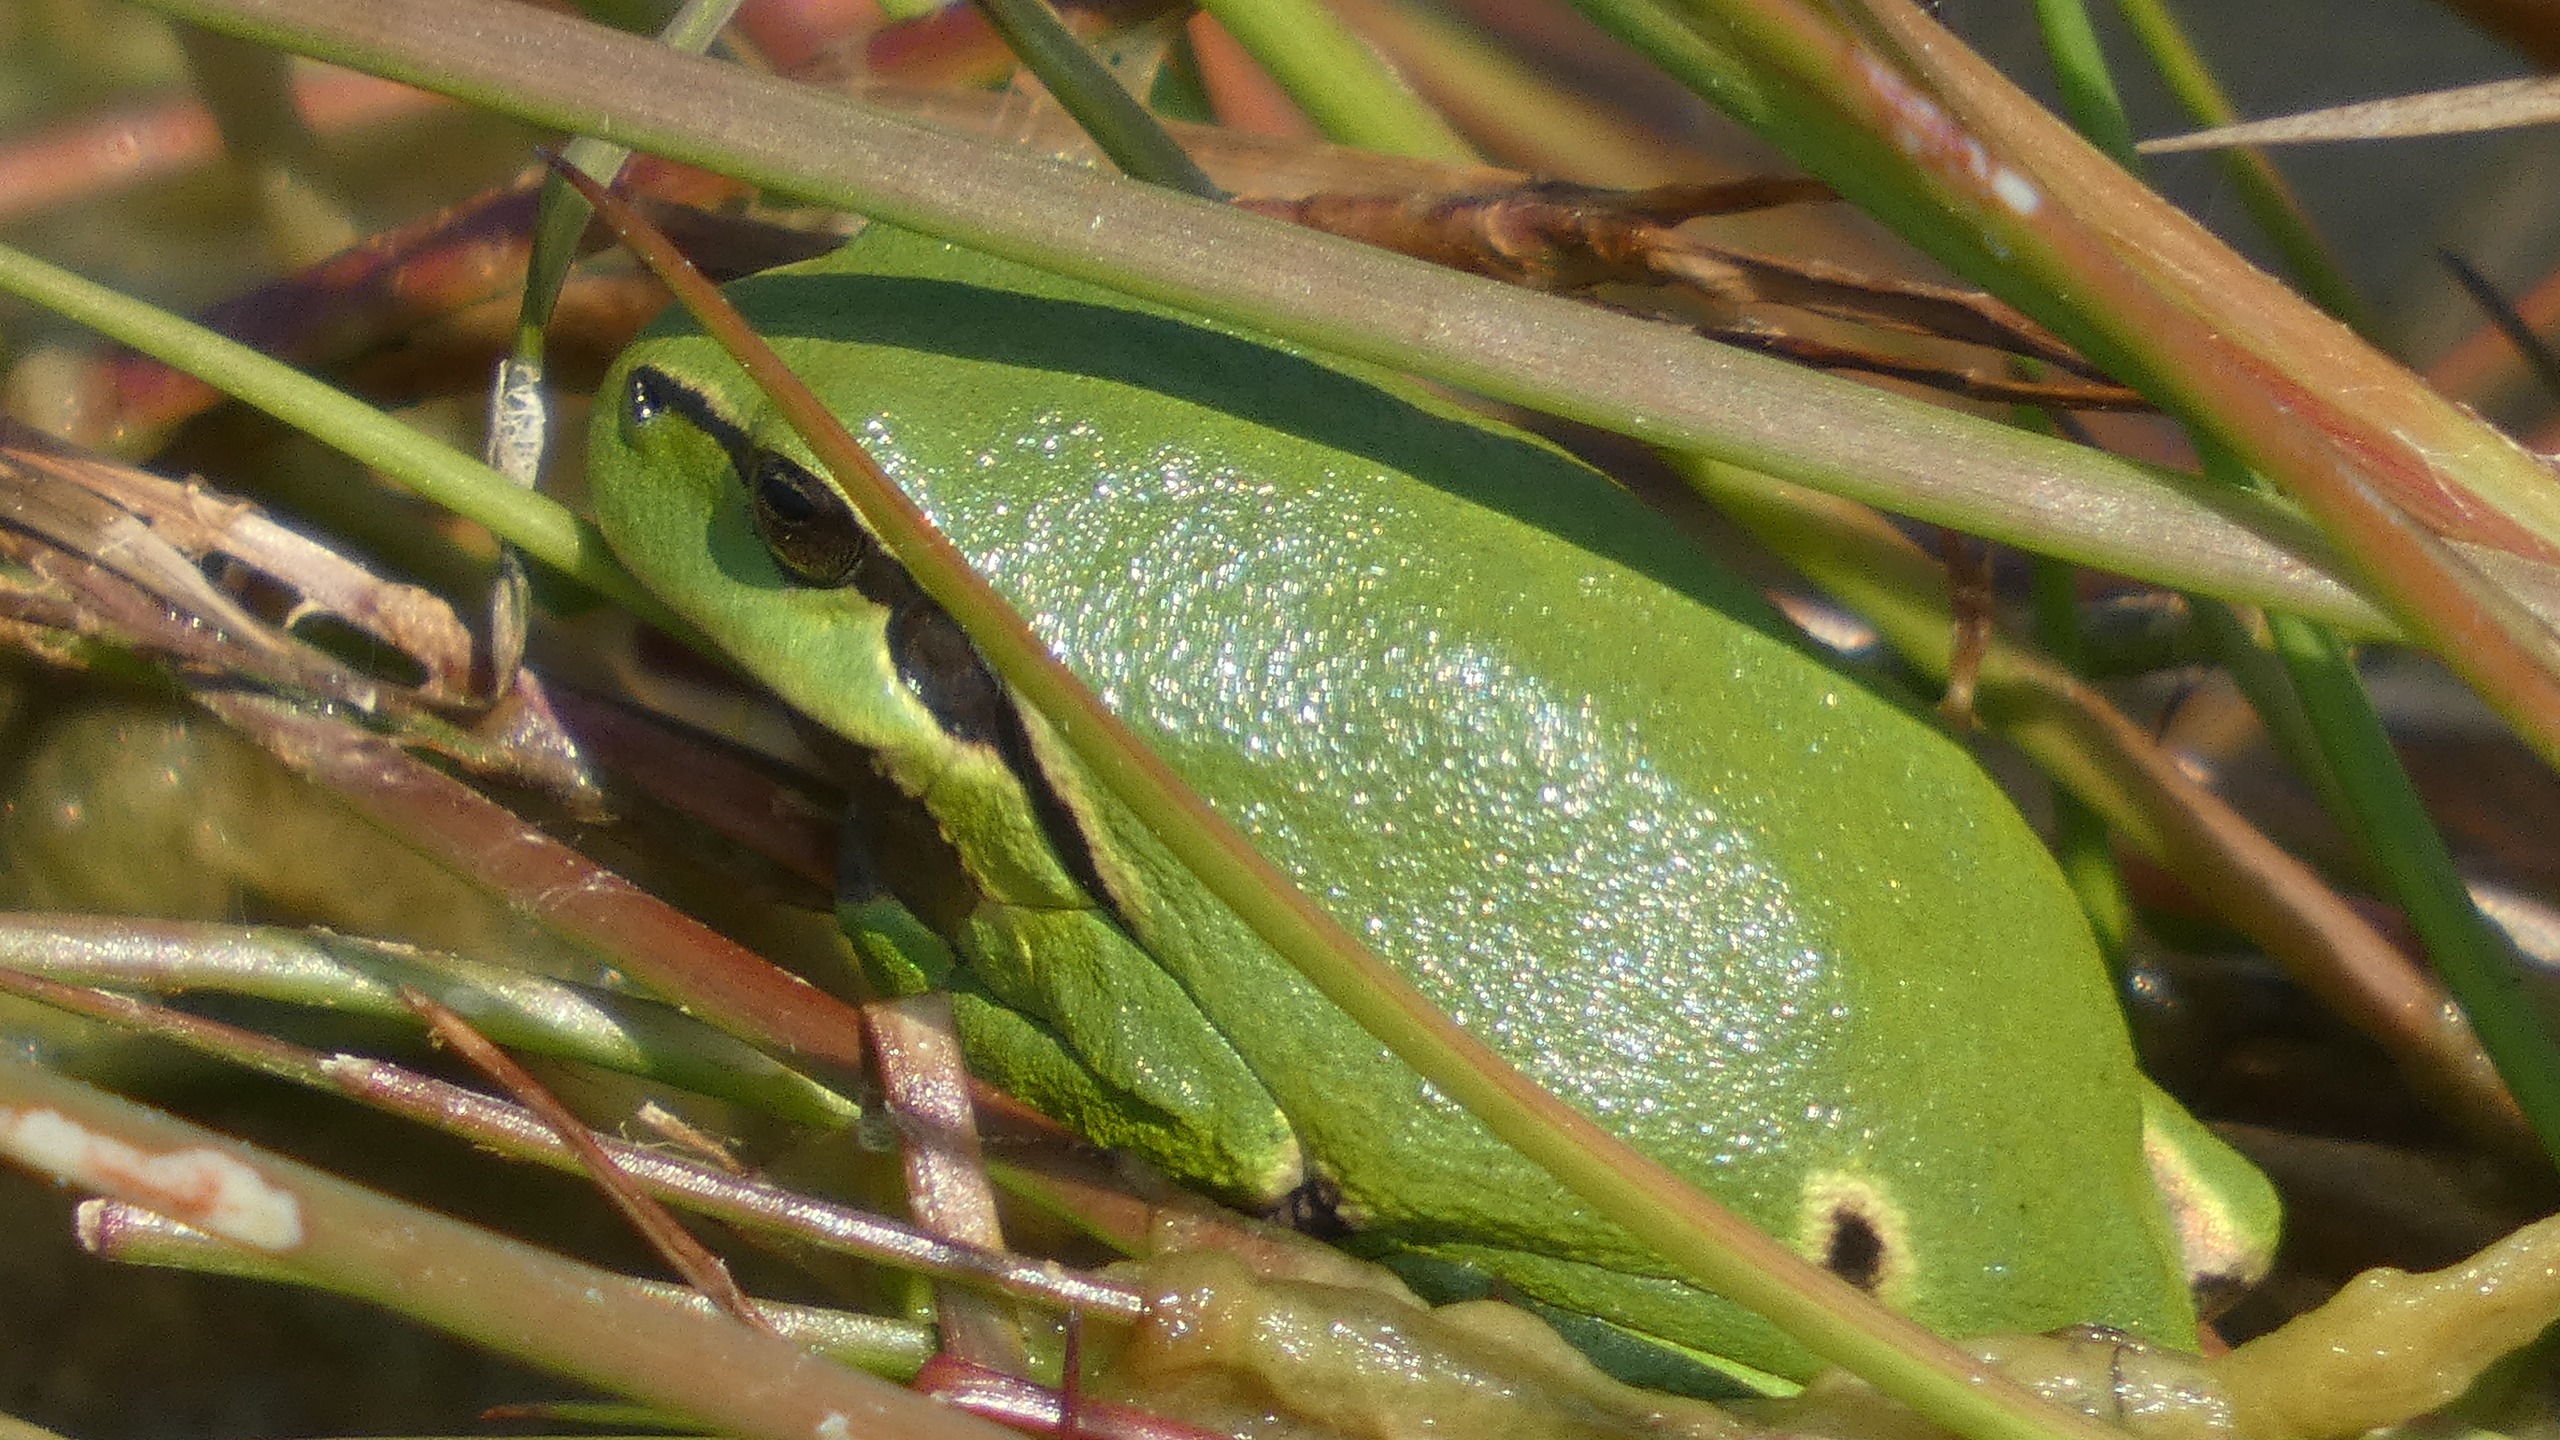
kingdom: Animalia
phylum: Chordata
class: Amphibia
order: Anura
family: Hylidae
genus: Hyla
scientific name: Hyla arborea
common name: Løvfrø
